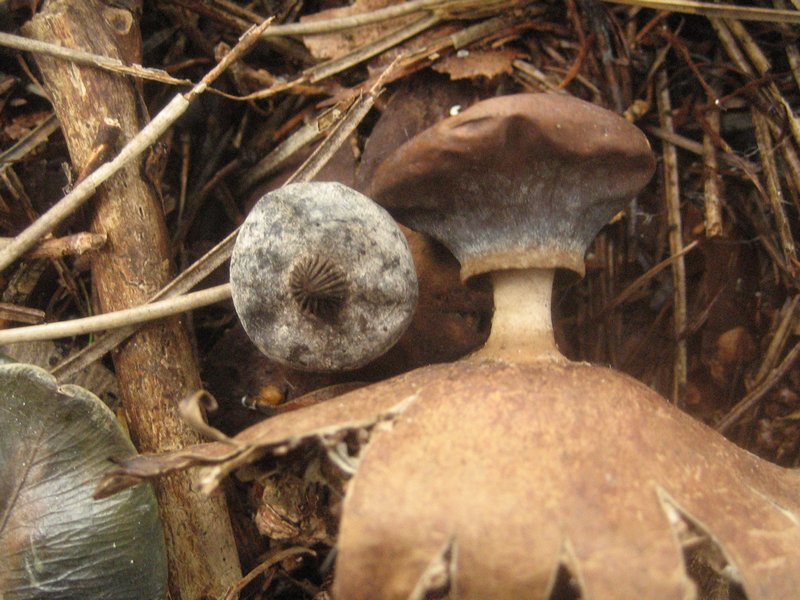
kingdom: Fungi
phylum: Basidiomycota
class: Agaricomycetes
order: Geastrales
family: Geastraceae
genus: Geastrum
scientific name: Geastrum striatum
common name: krave-stjernebold
